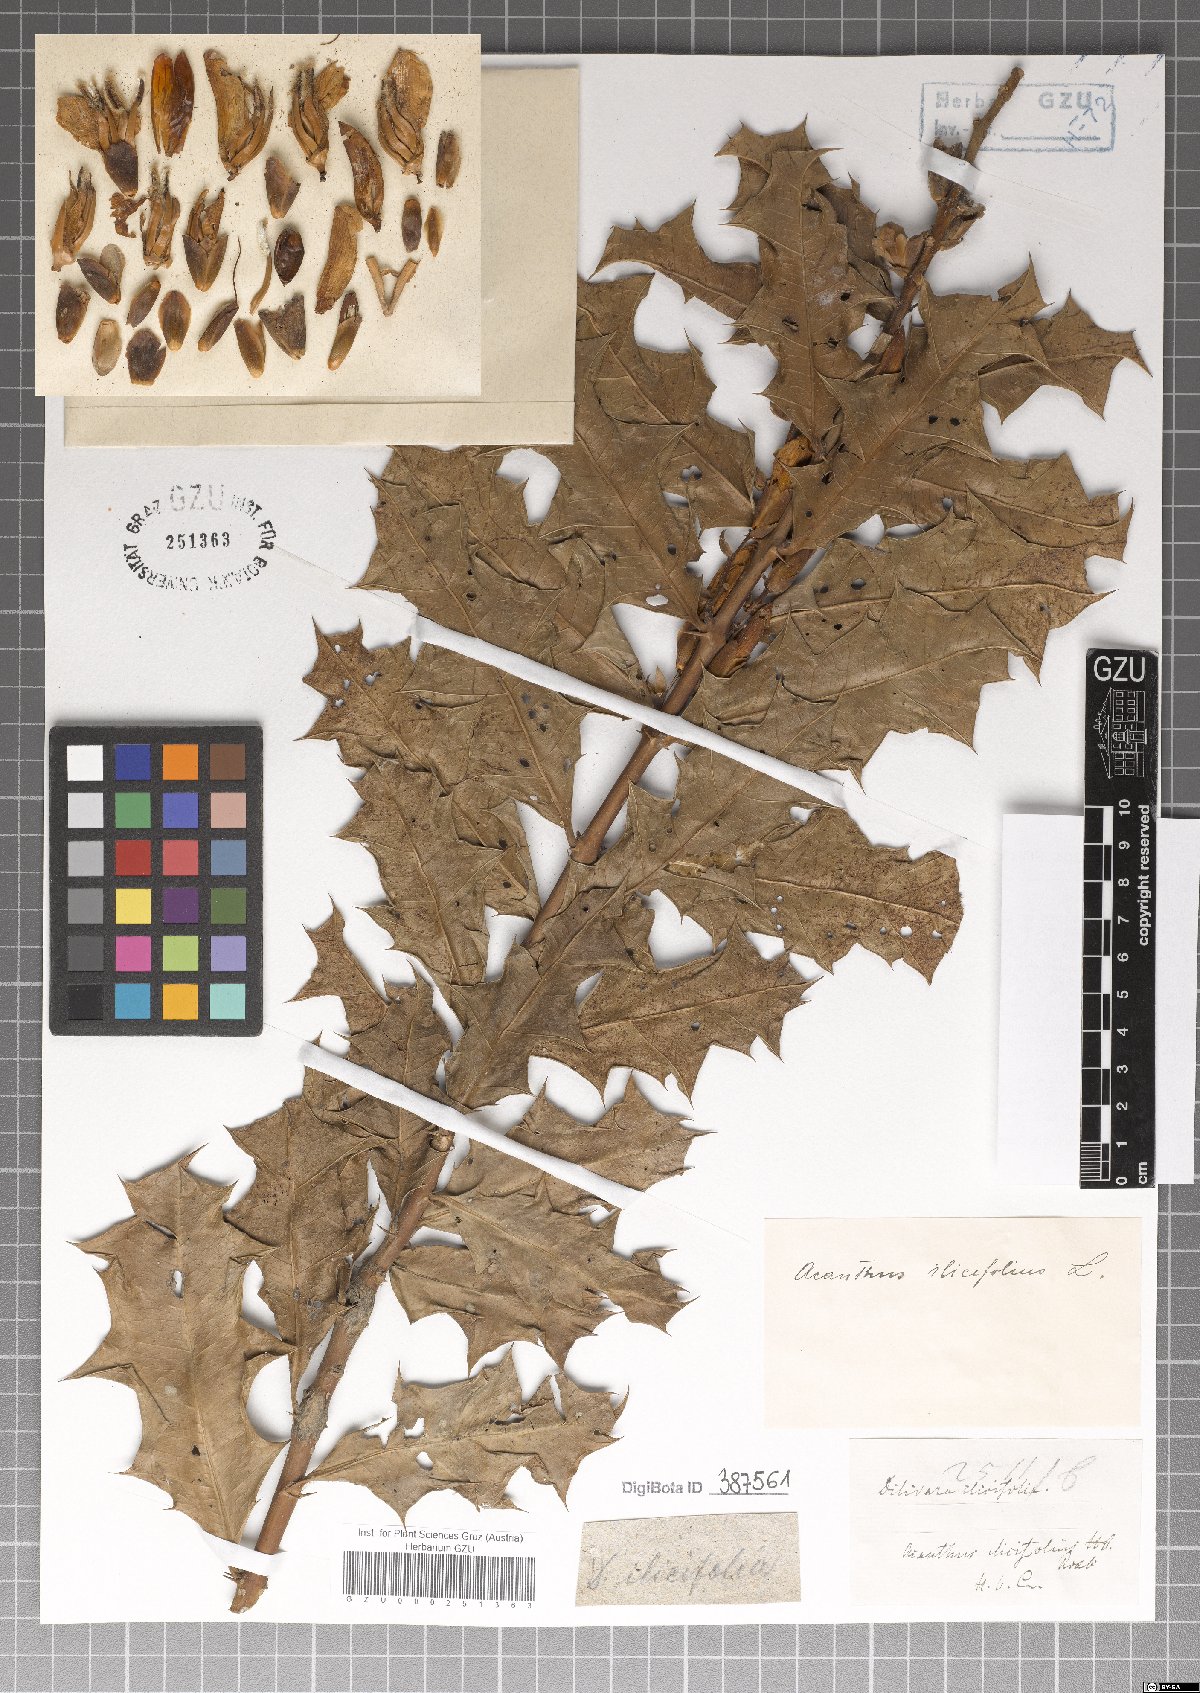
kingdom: Plantae
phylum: Tracheophyta
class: Magnoliopsida
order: Lamiales
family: Acanthaceae
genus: Acanthus
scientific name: Acanthus ilicifolius
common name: Holy mangrove
